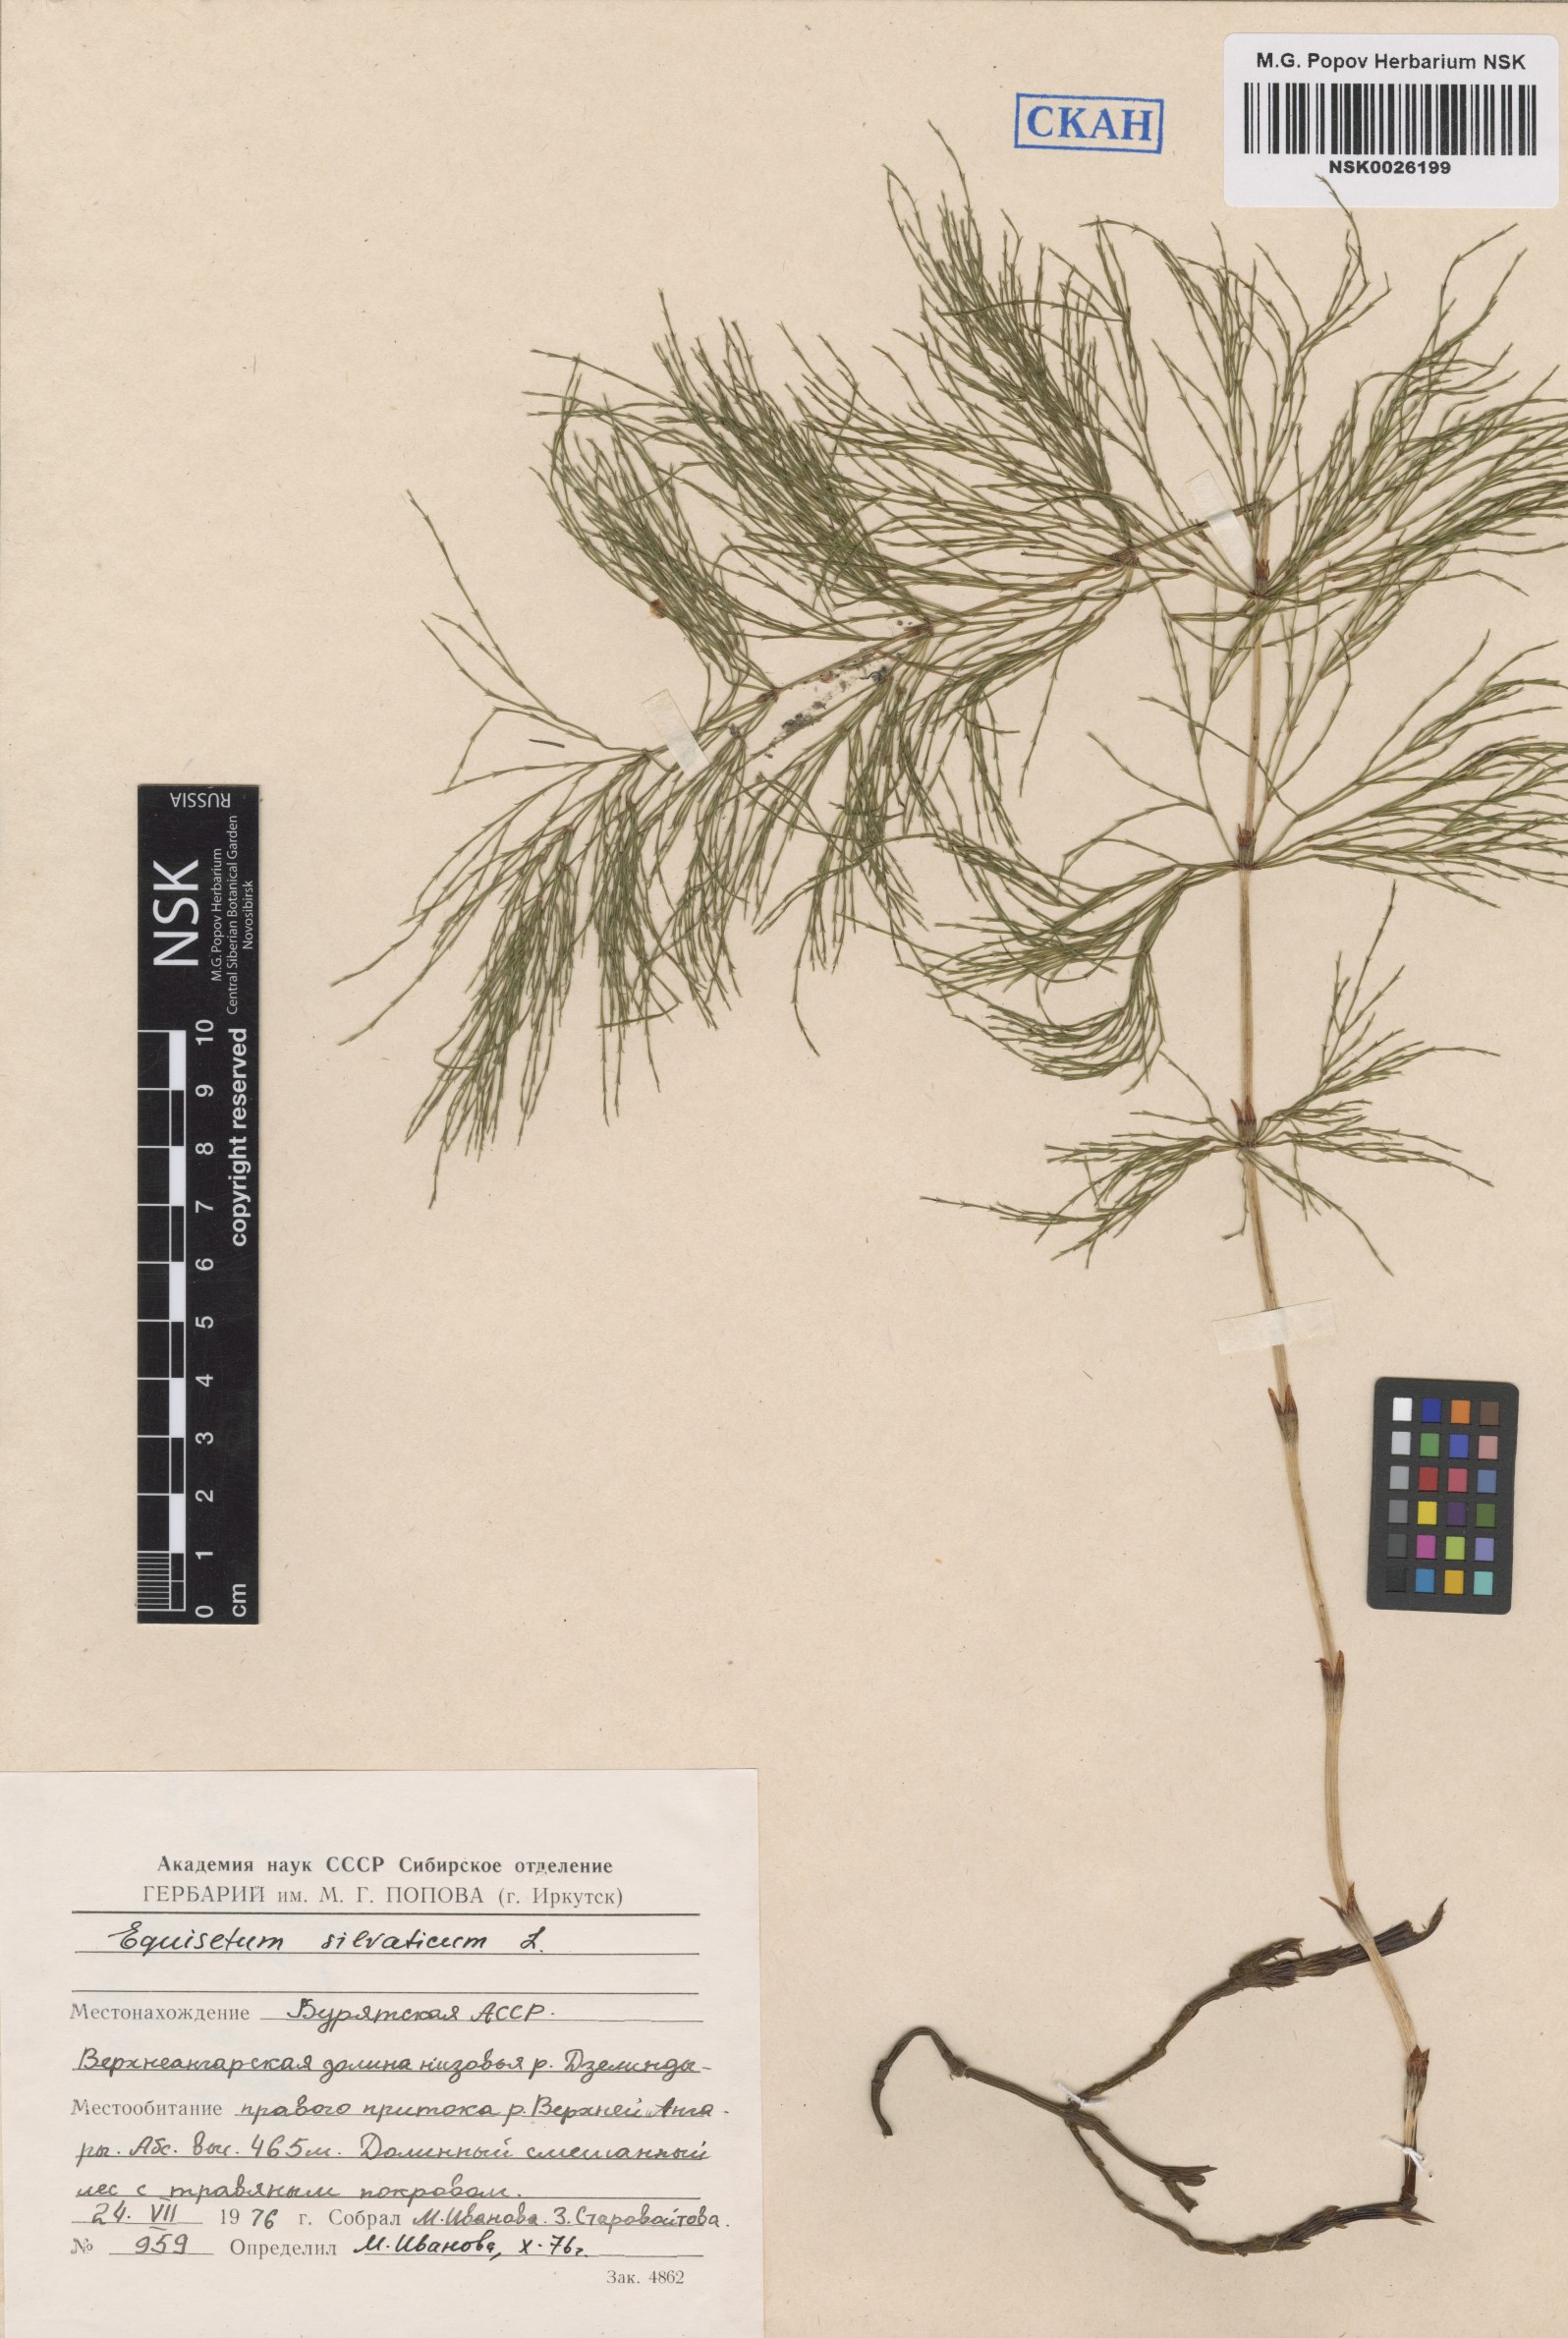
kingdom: Plantae
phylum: Tracheophyta
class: Polypodiopsida
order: Equisetales
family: Equisetaceae
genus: Equisetum
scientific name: Equisetum sylvaticum
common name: Wood horsetail
